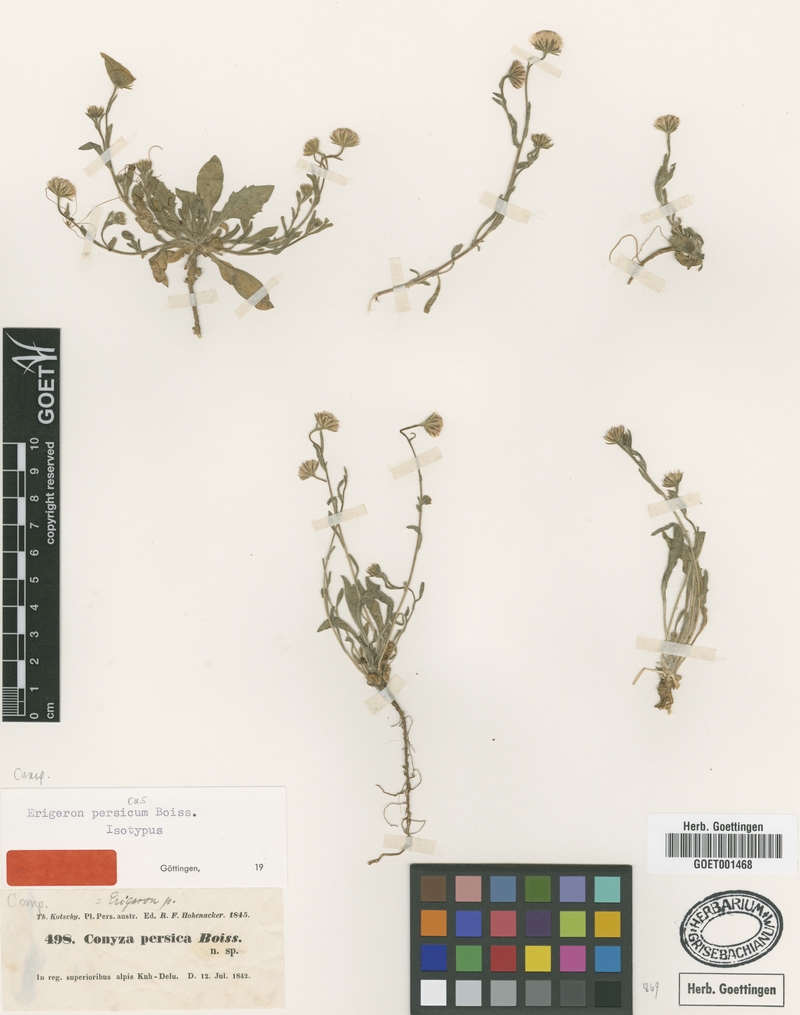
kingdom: Plantae
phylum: Tracheophyta
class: Magnoliopsida
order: Asterales
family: Asteraceae
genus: Psychrogeton
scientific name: Psychrogeton persicus
